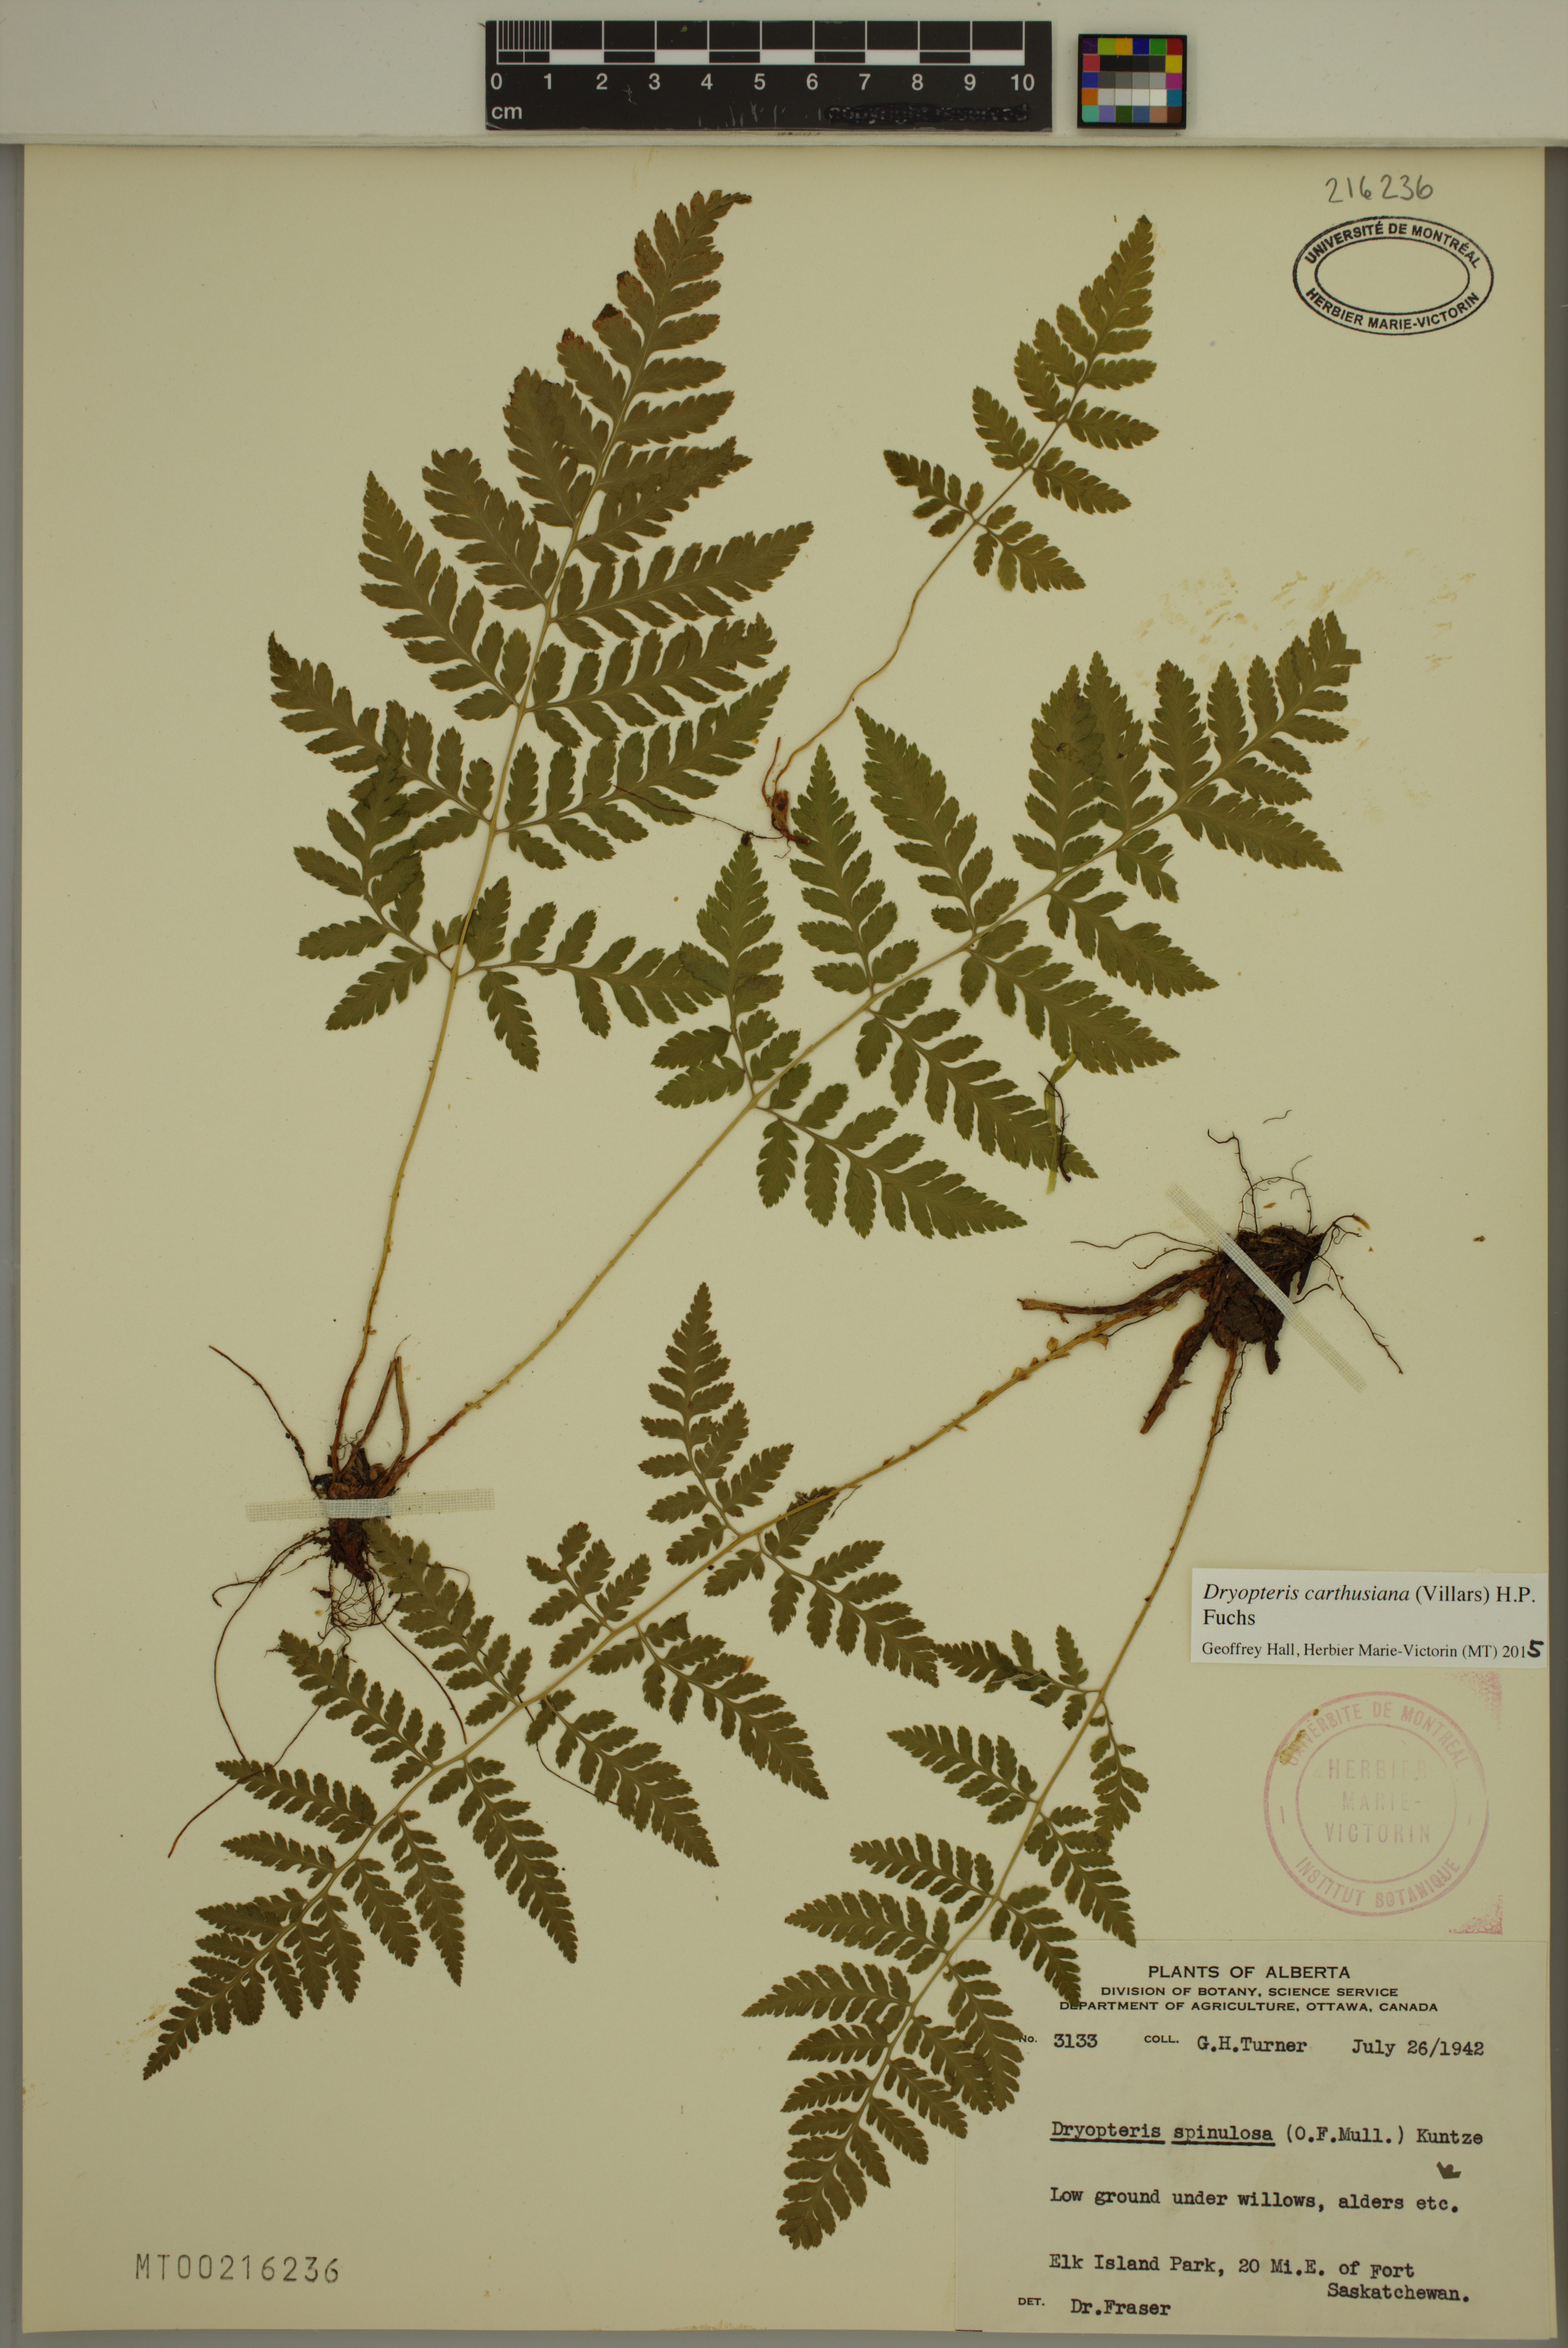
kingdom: Plantae
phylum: Tracheophyta
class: Polypodiopsida
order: Polypodiales
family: Dryopteridaceae
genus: Dryopteris
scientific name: Dryopteris carthusiana
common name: Narrow buckler-fern
